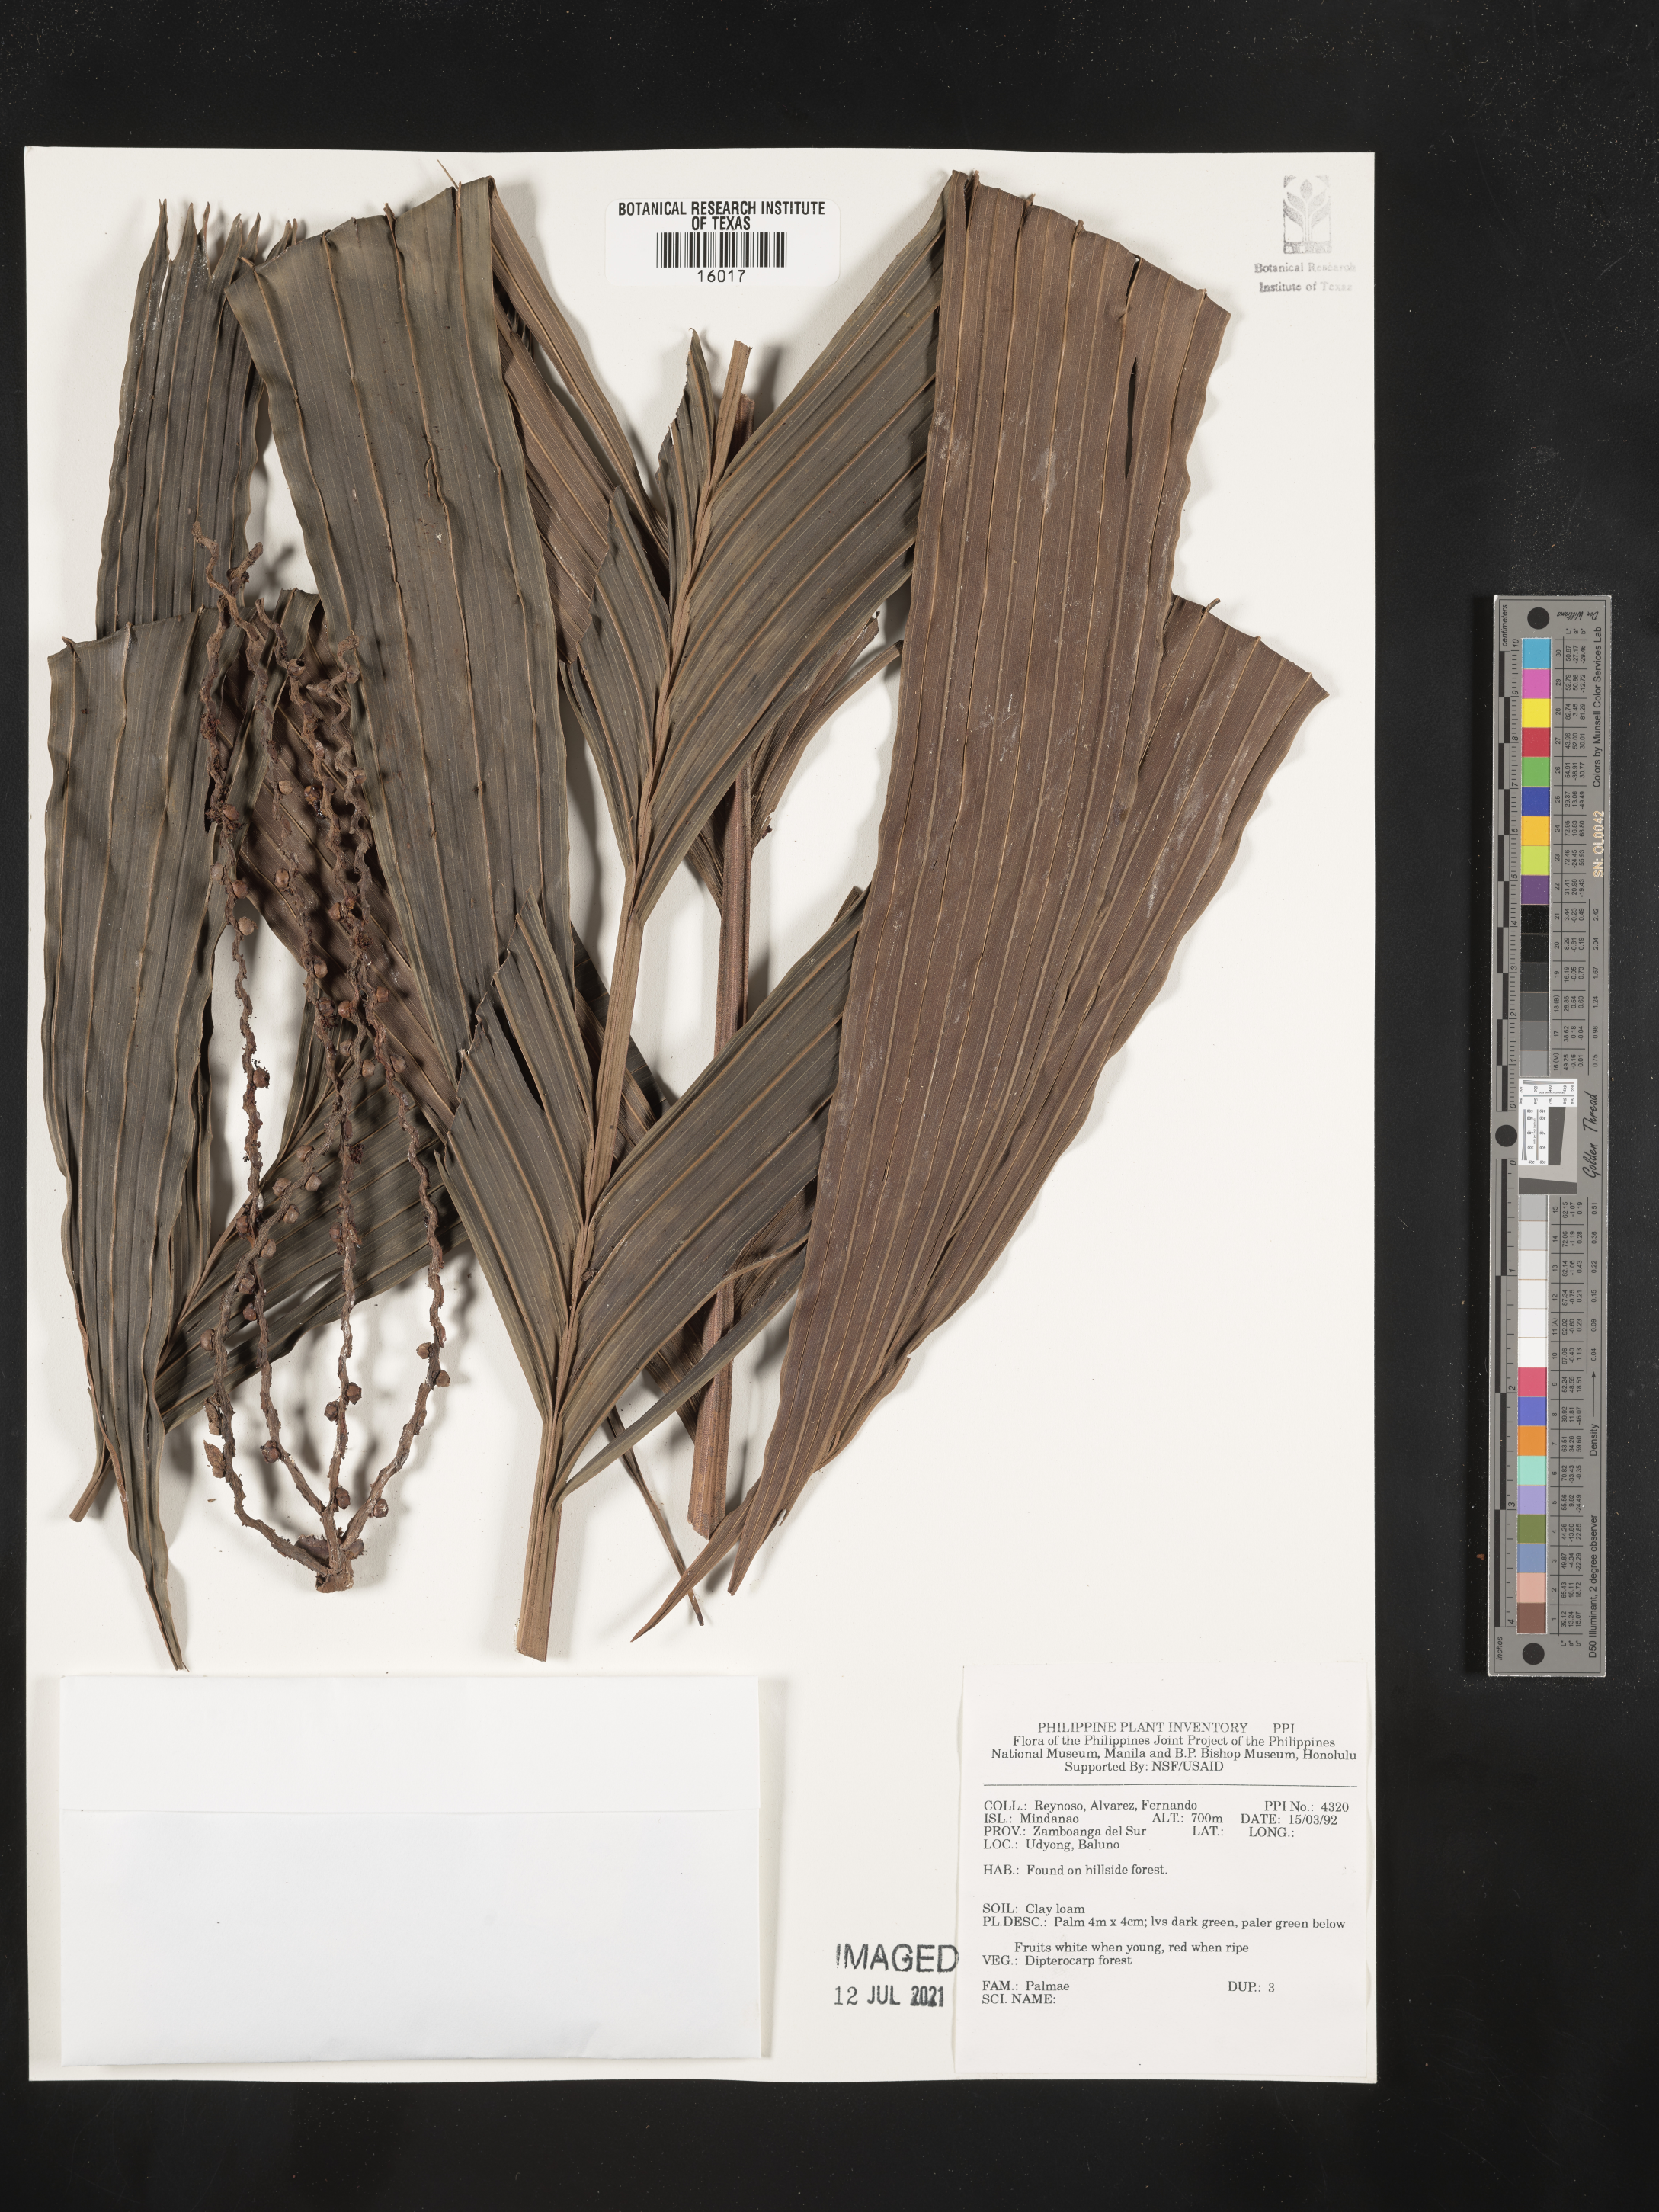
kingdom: Plantae
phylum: Tracheophyta
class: Liliopsida
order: Arecales
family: Arecaceae
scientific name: Arecaceae
